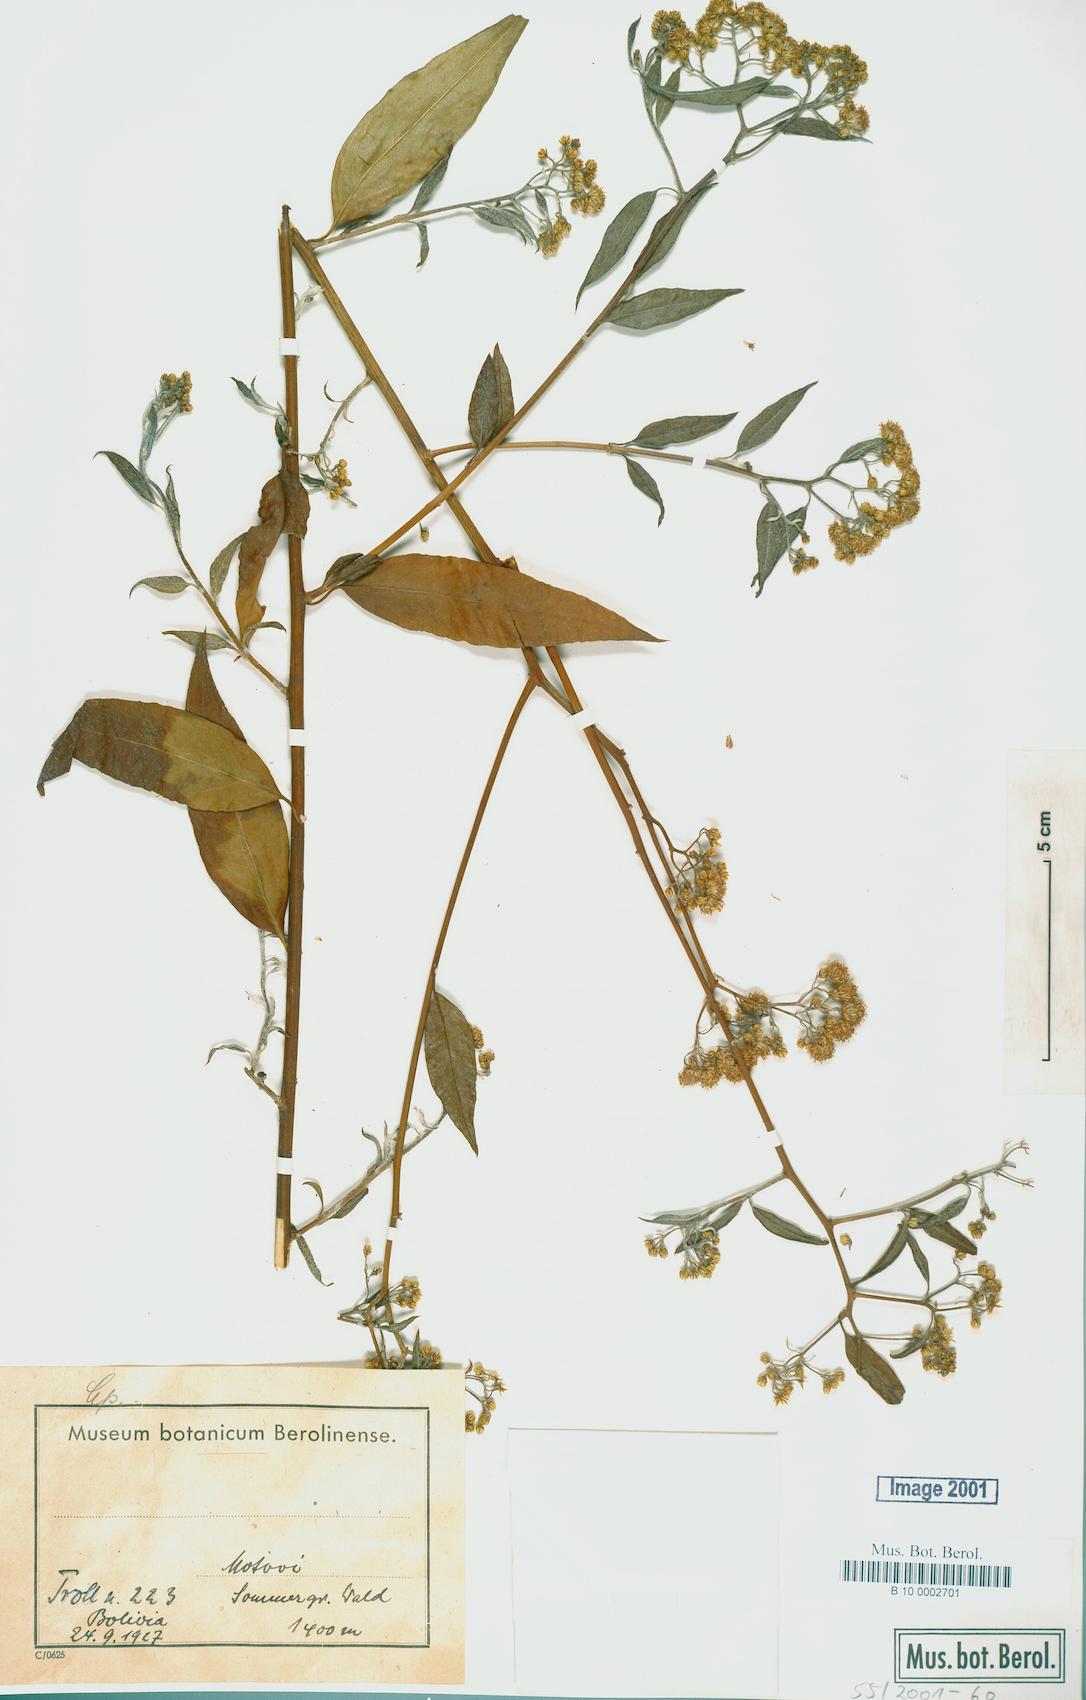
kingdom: Plantae
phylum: Tracheophyta
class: Magnoliopsida
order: Asterales
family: Asteraceae
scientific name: Asteraceae
